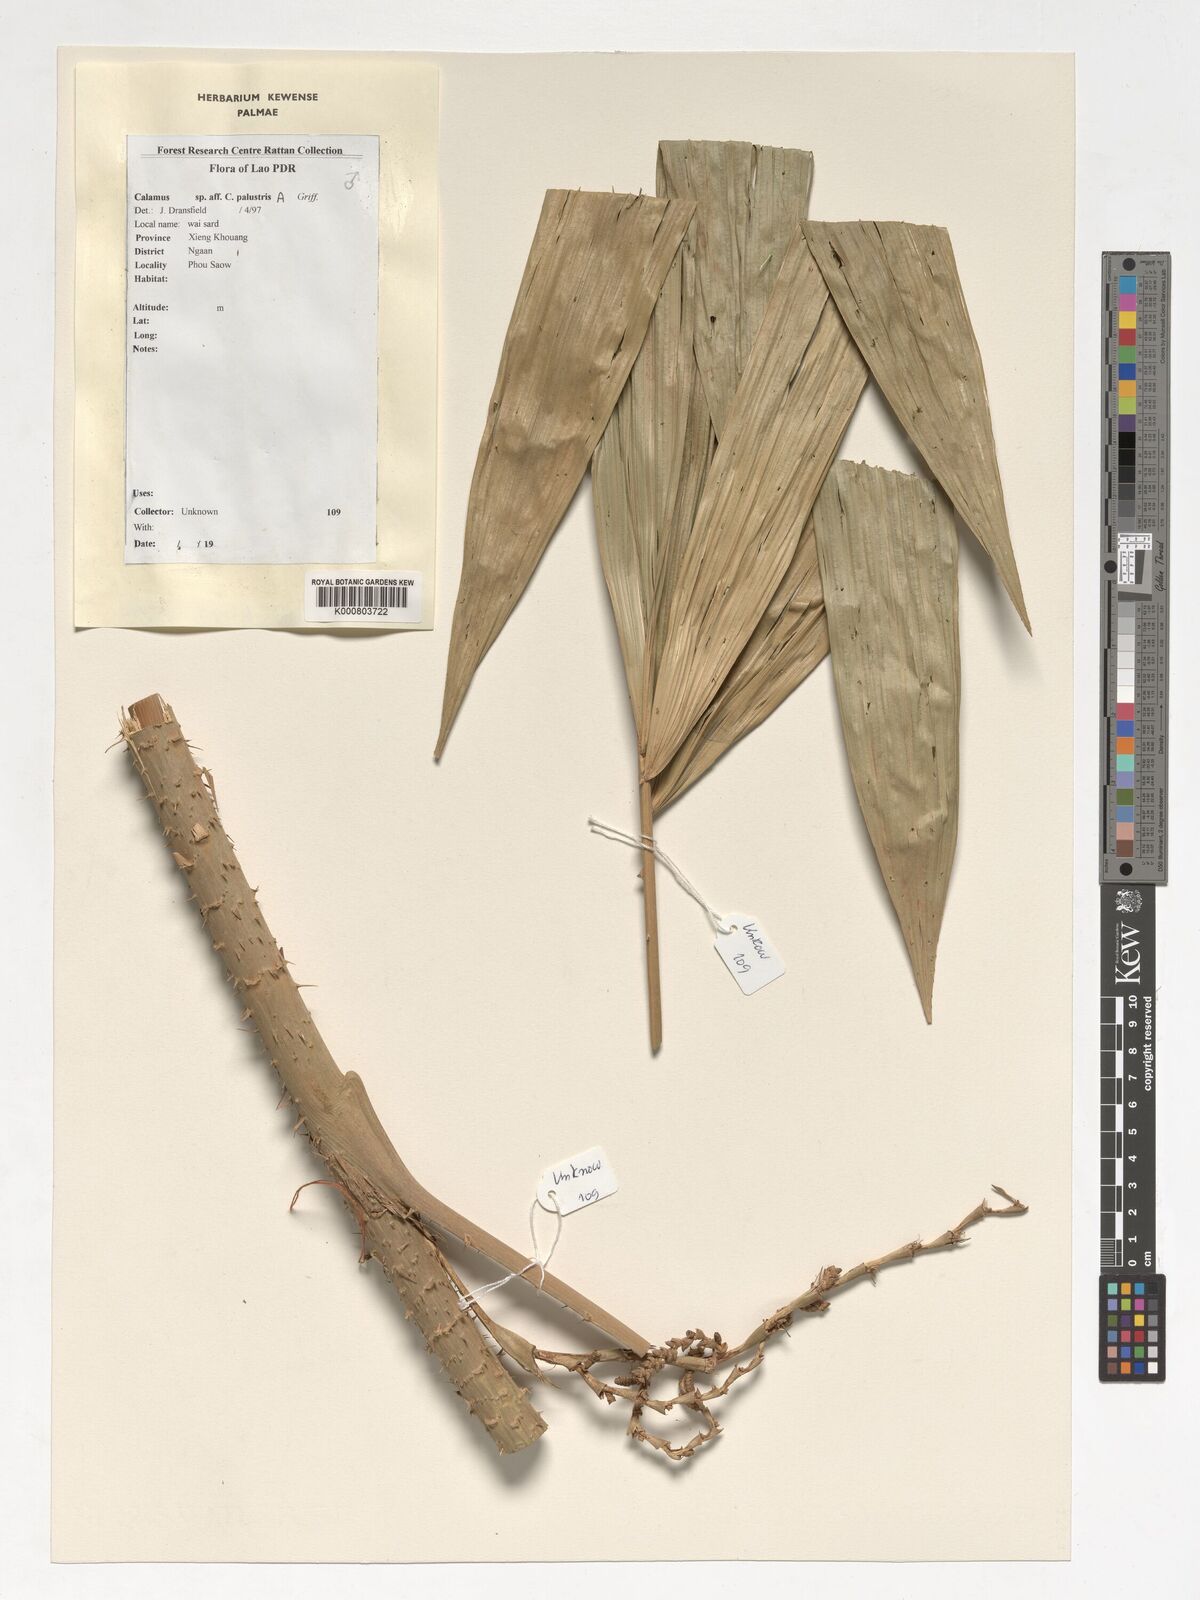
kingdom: Plantae
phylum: Tracheophyta
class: Liliopsida
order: Arecales
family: Arecaceae
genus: Calamus
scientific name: Calamus latifolius
